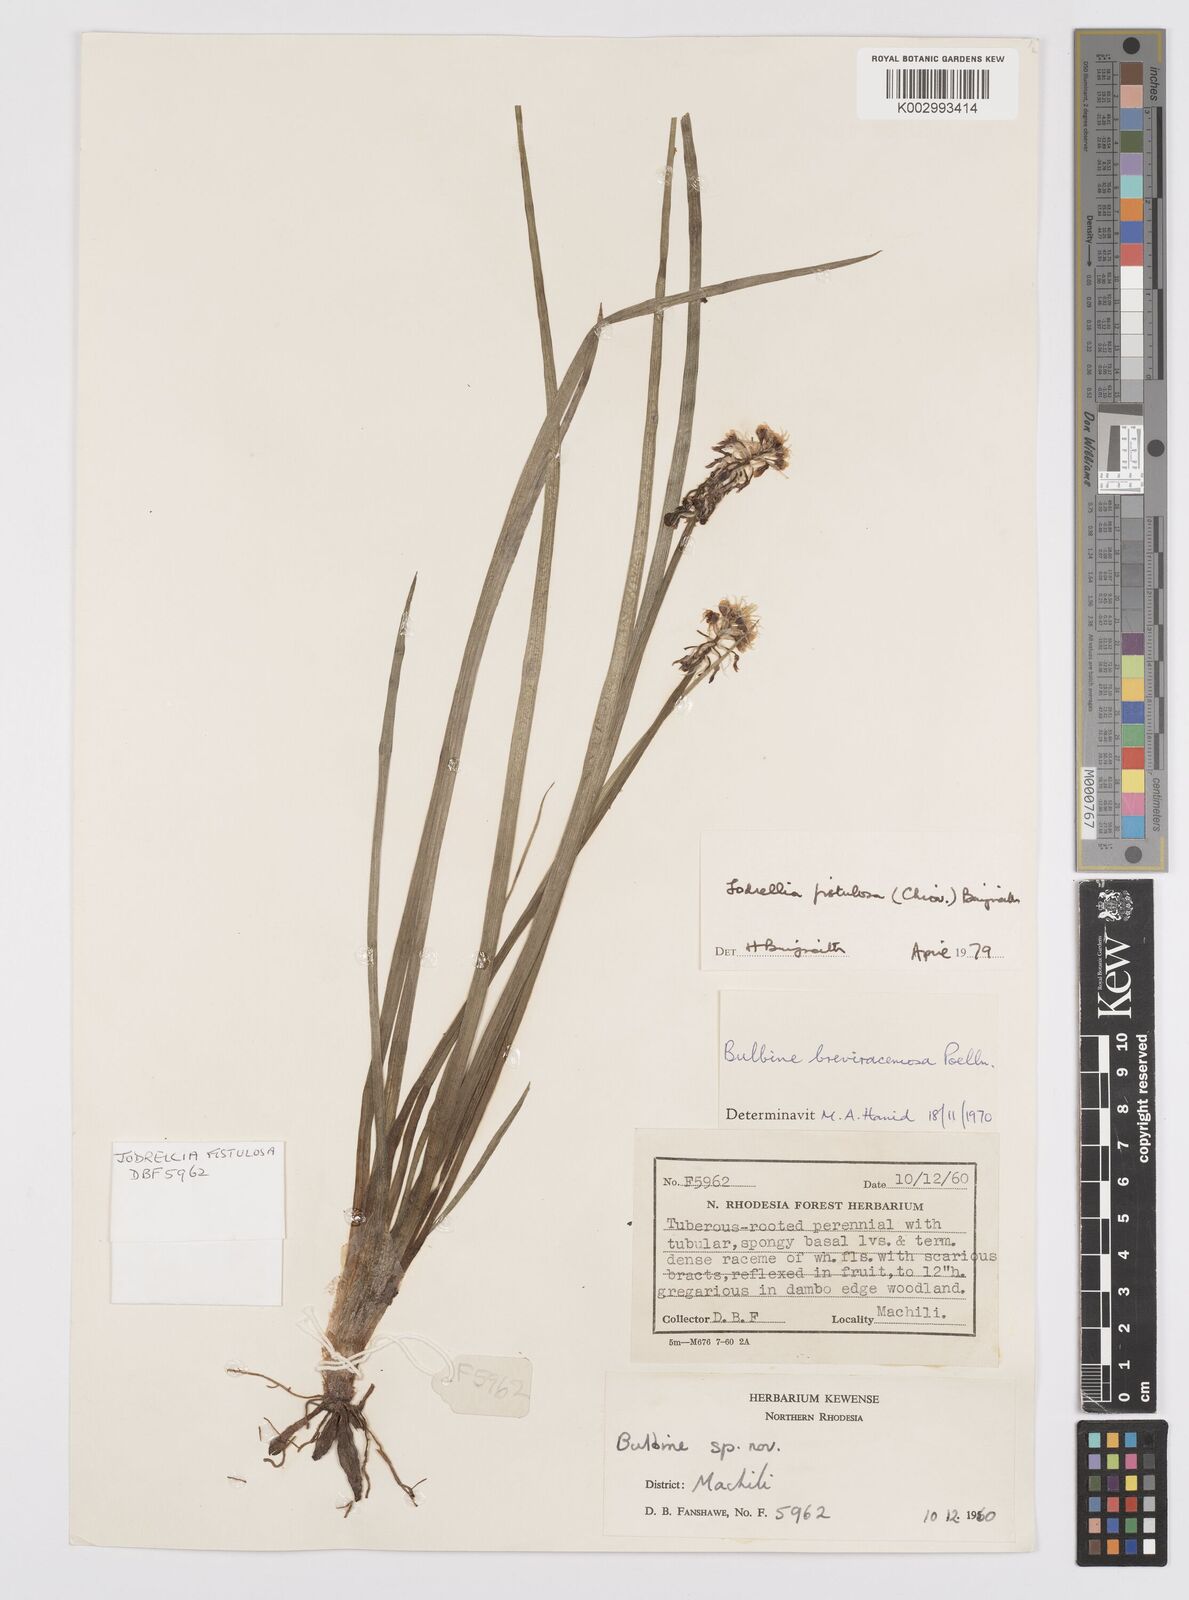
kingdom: Plantae
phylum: Tracheophyta
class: Liliopsida
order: Asparagales
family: Asphodelaceae
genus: Bulbine
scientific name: Bulbine fistulosa
